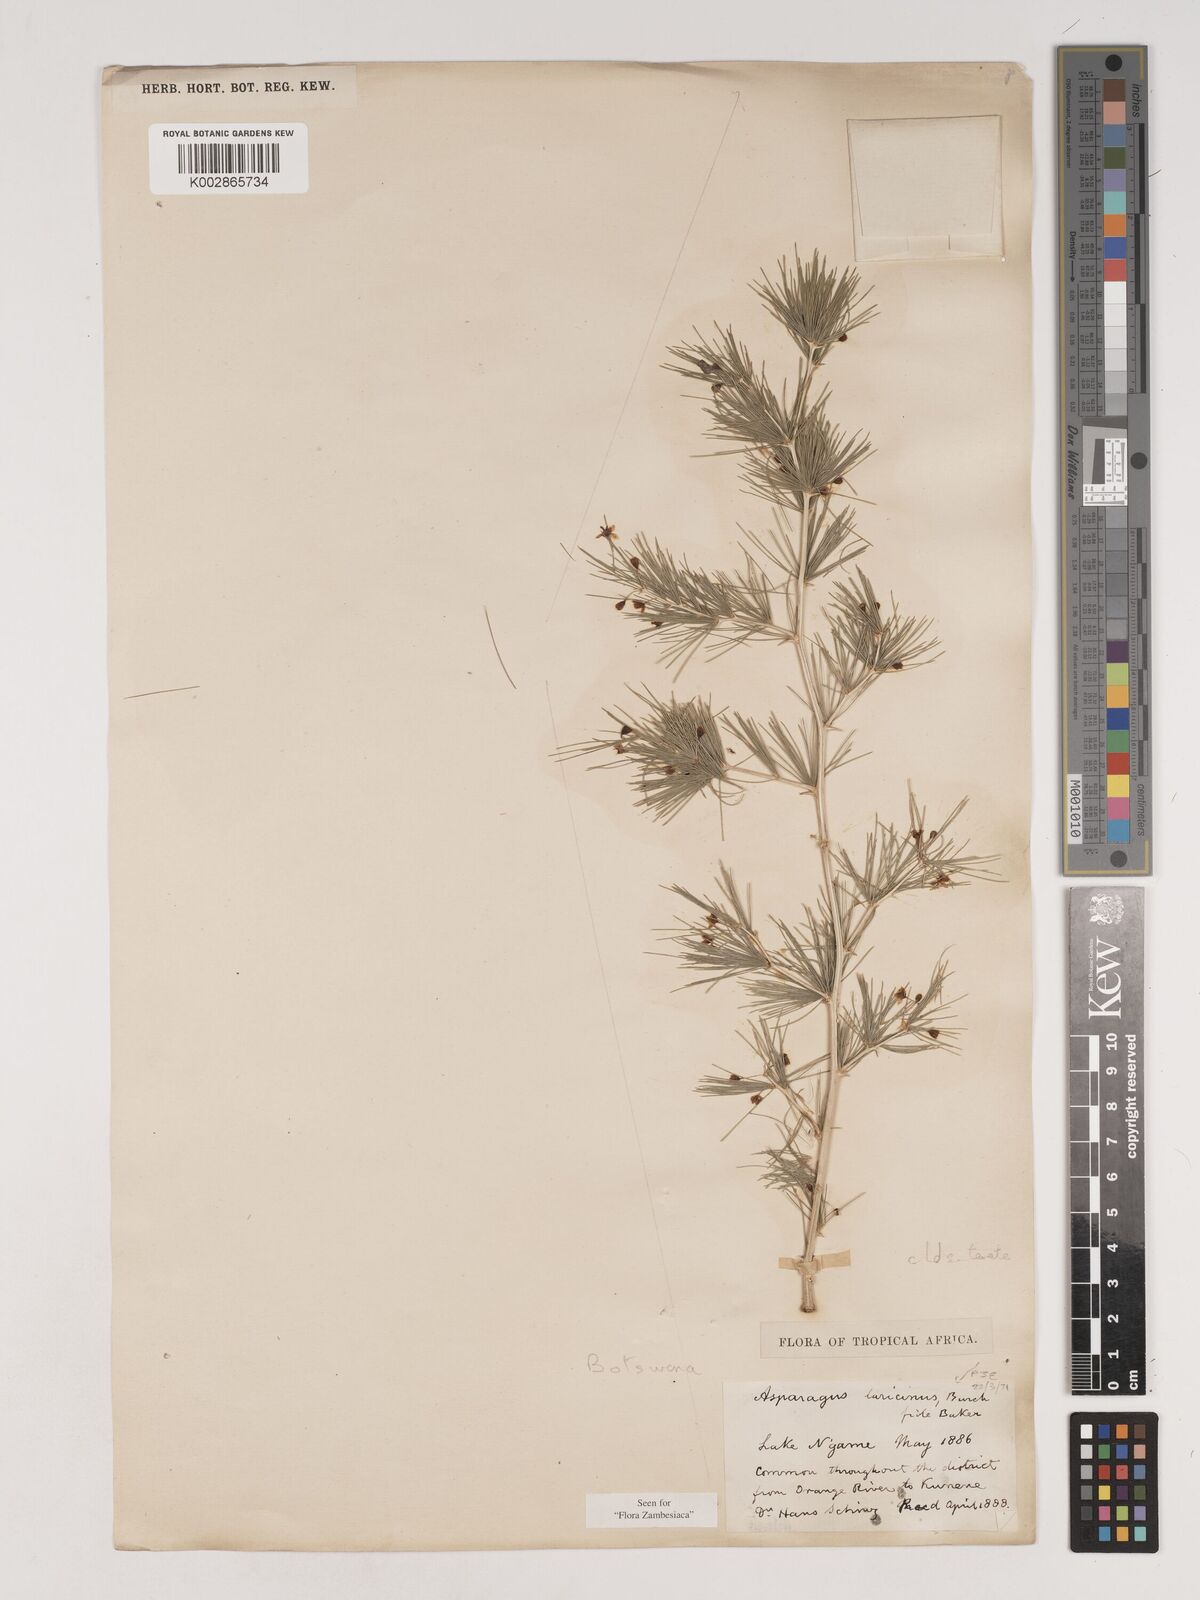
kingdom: Plantae
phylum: Tracheophyta
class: Liliopsida
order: Asparagales
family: Asparagaceae
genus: Asparagus
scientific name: Asparagus laricinus
